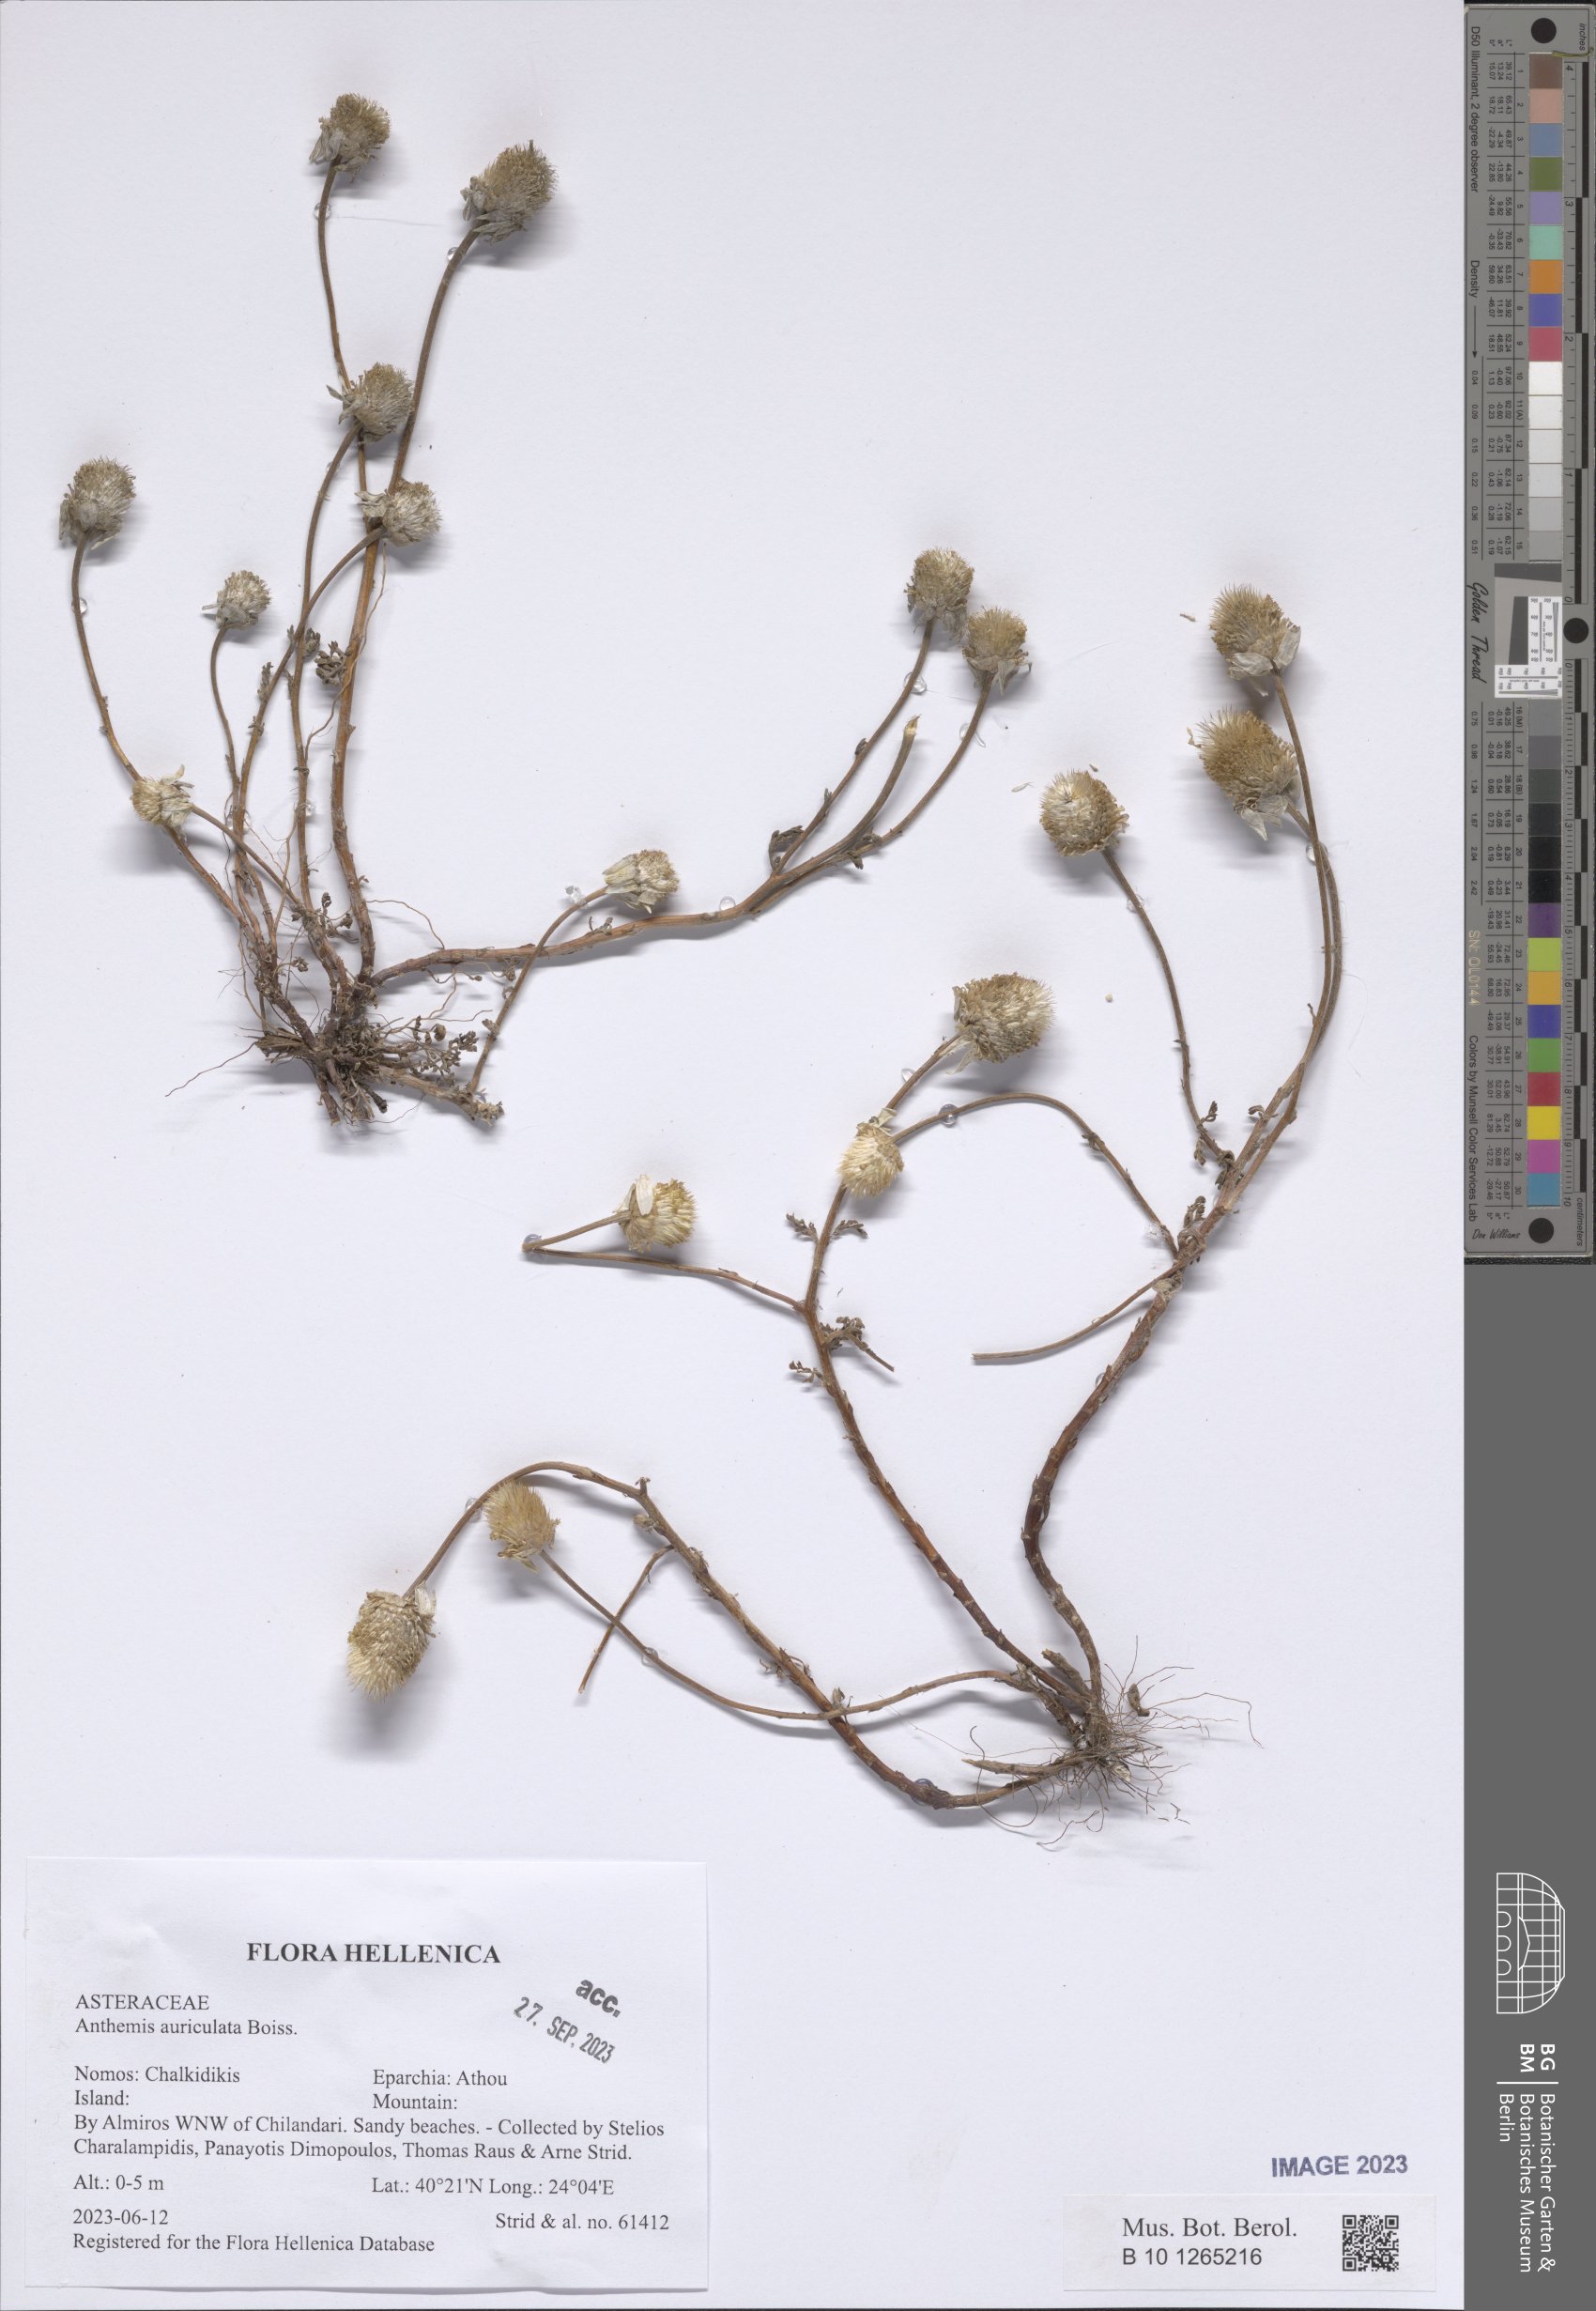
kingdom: Plantae
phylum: Tracheophyta
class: Magnoliopsida
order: Asterales
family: Asteraceae
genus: Anthemis
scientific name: Anthemis auriculata
